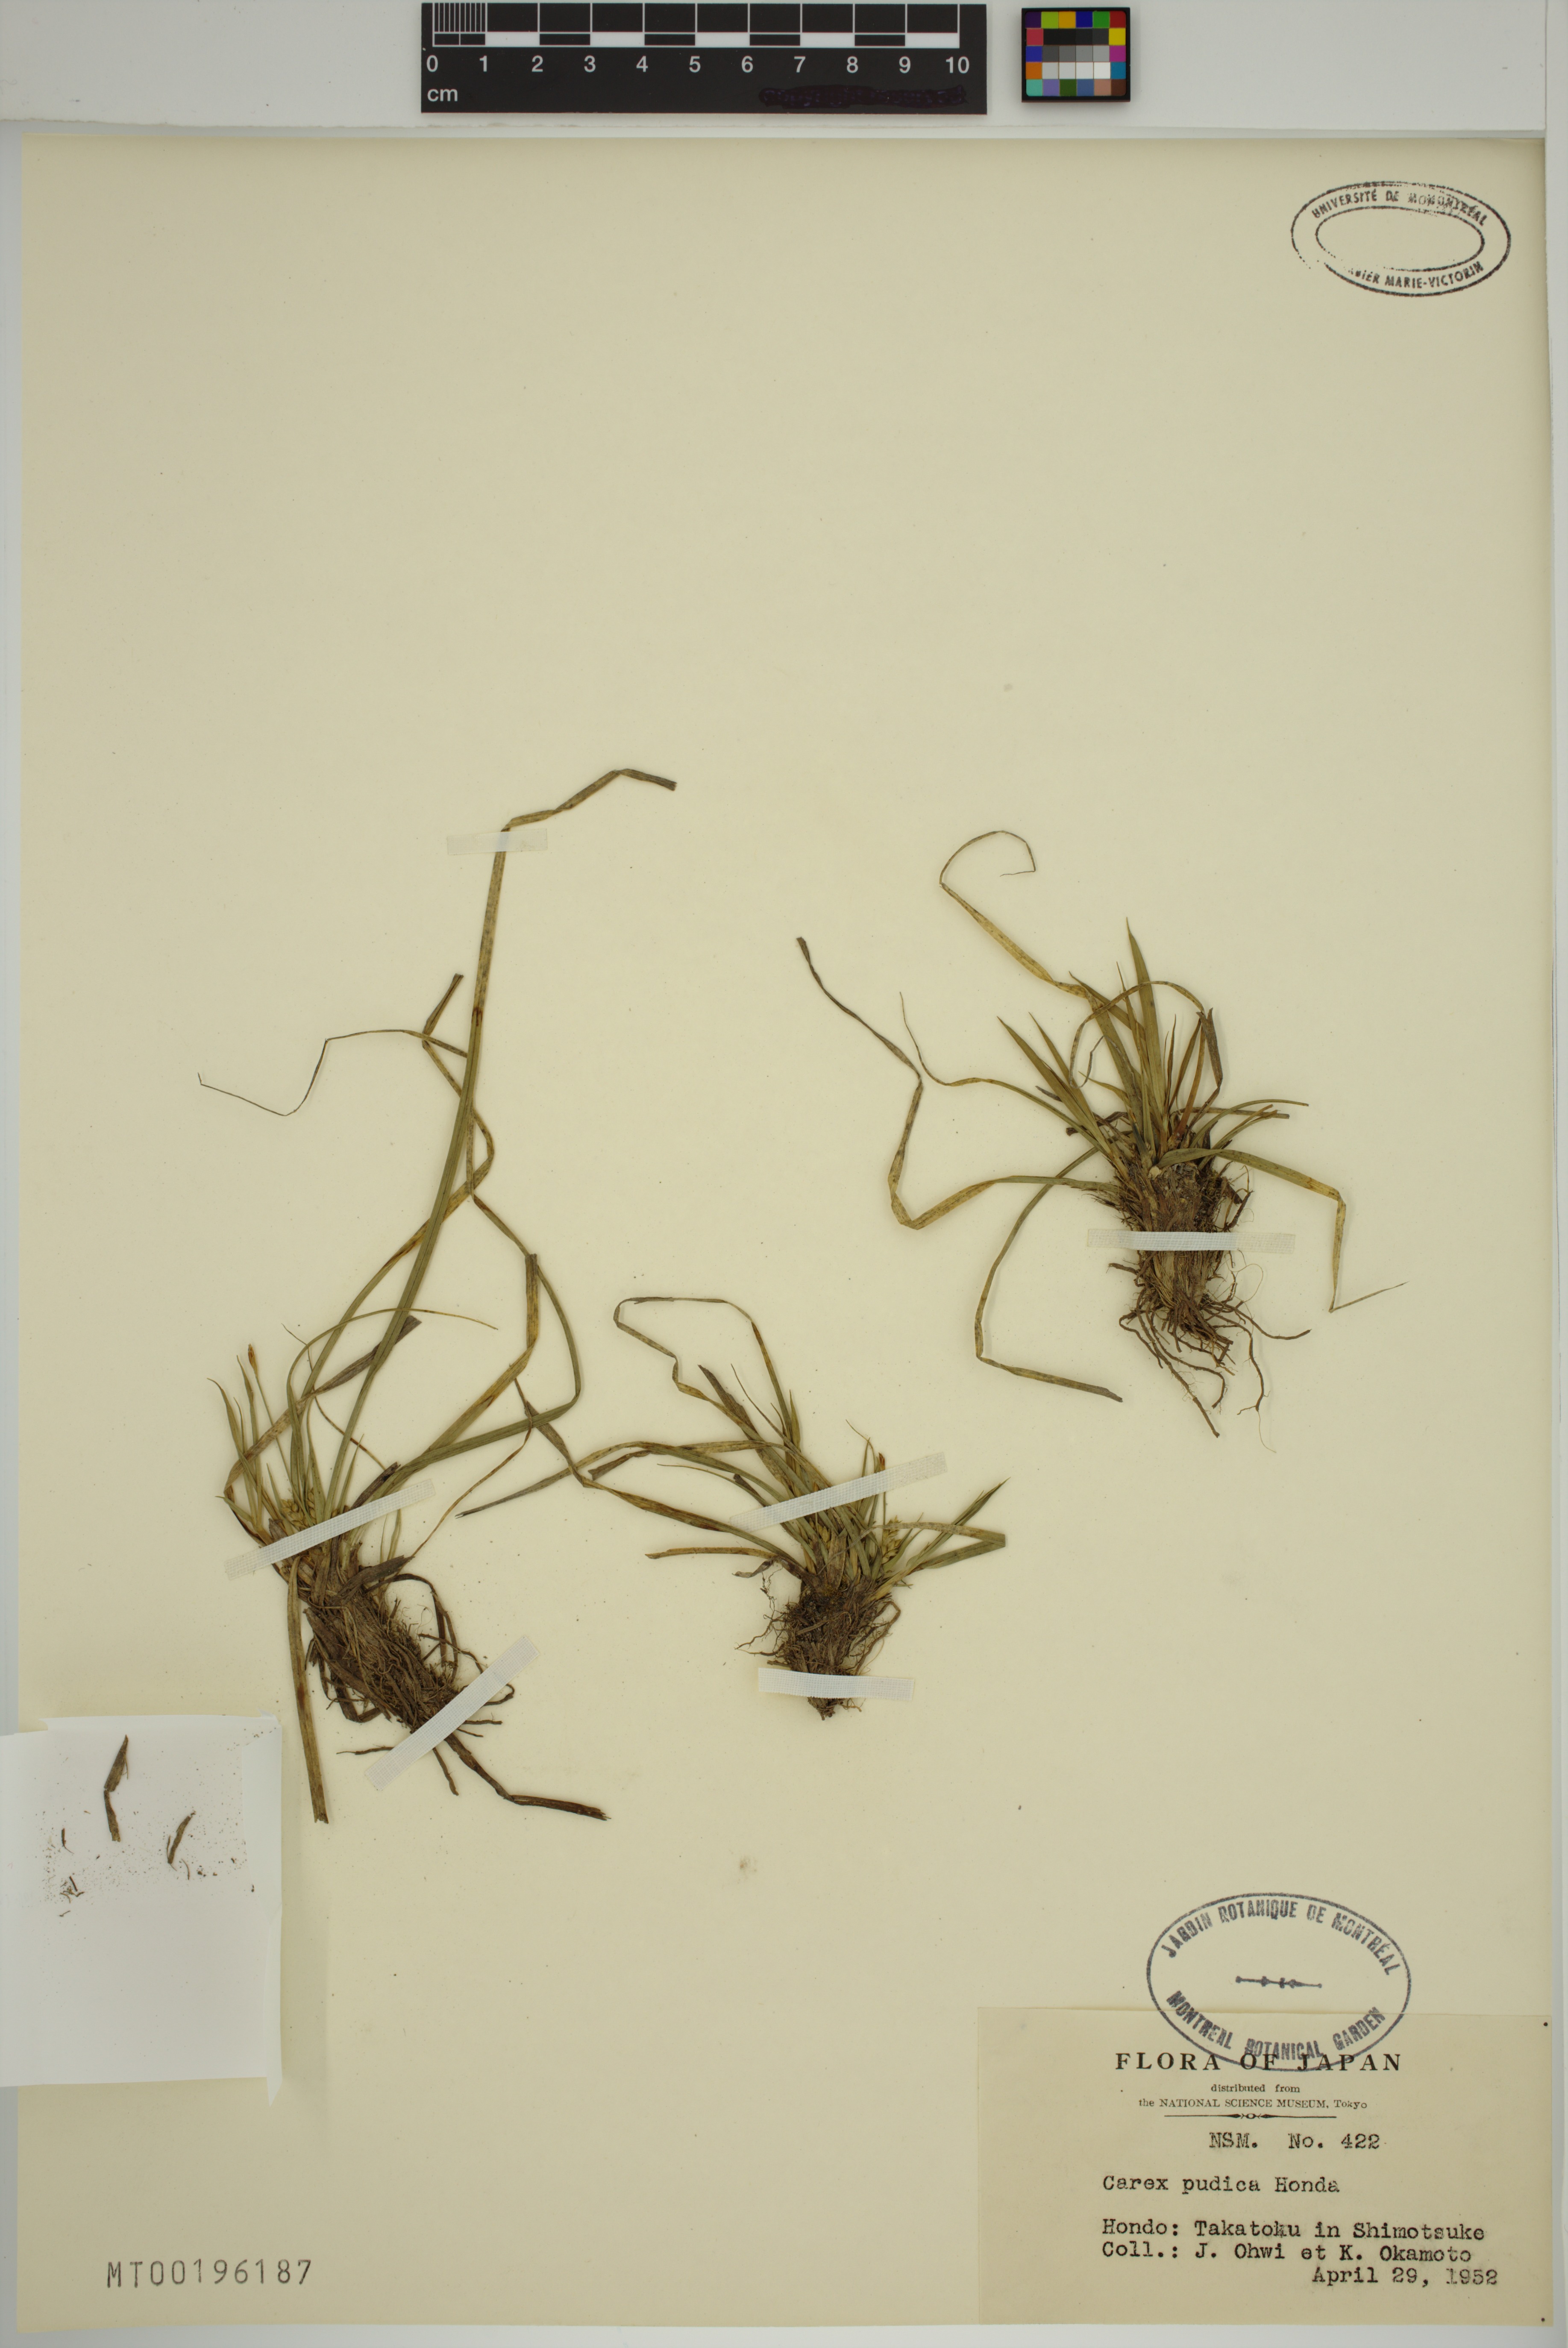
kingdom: Plantae
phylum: Tracheophyta
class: Liliopsida
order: Poales
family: Cyperaceae
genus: Carex
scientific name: Carex pudica
